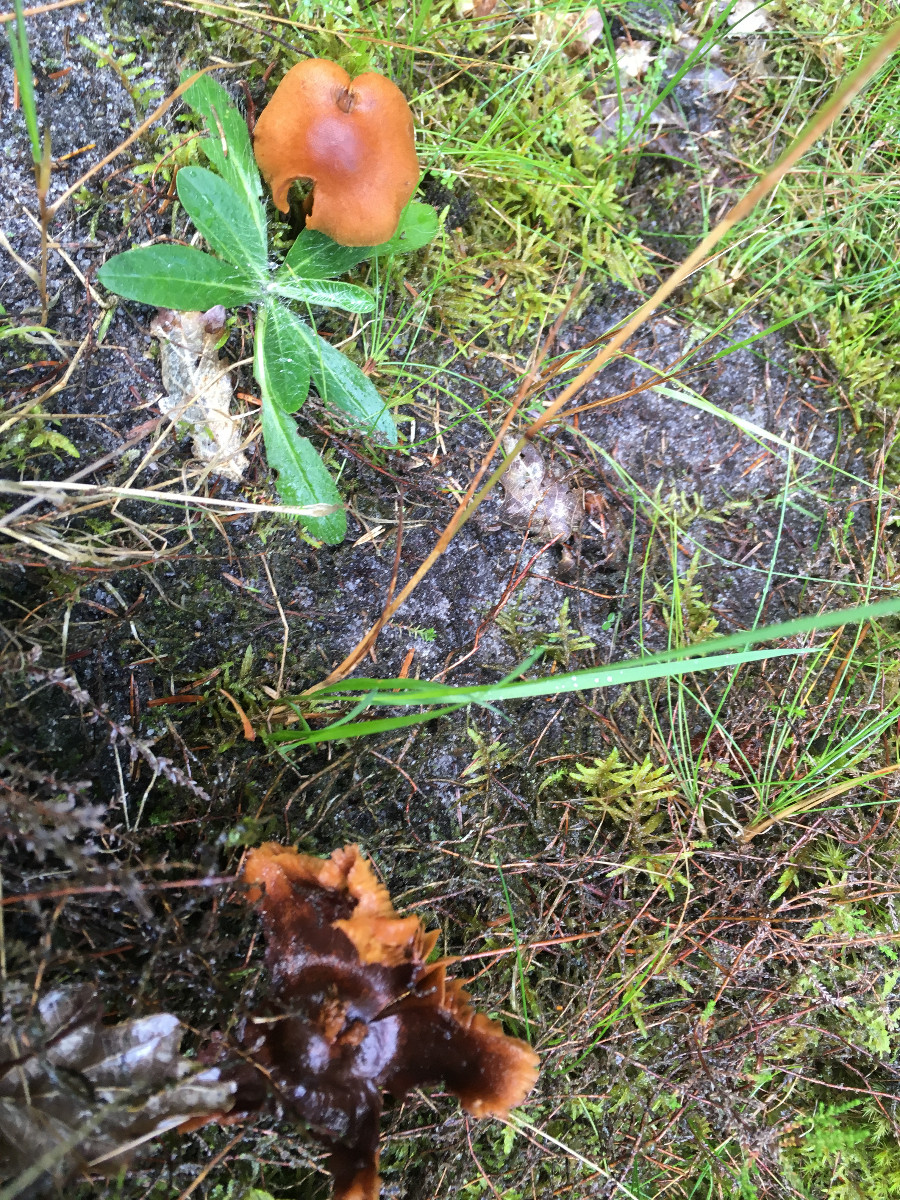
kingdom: Fungi
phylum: Basidiomycota
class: Agaricomycetes
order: Agaricales
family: Cortinariaceae
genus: Cortinarius
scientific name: Cortinarius
